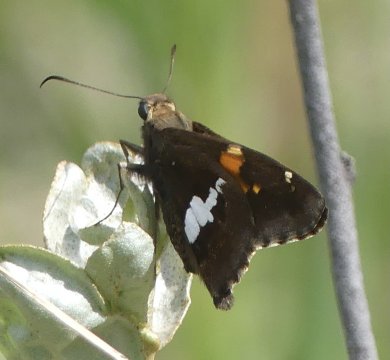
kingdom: Animalia
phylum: Arthropoda
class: Insecta
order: Lepidoptera
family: Hesperiidae
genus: Epargyreus
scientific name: Epargyreus clarus
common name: Silver-spotted Skipper
